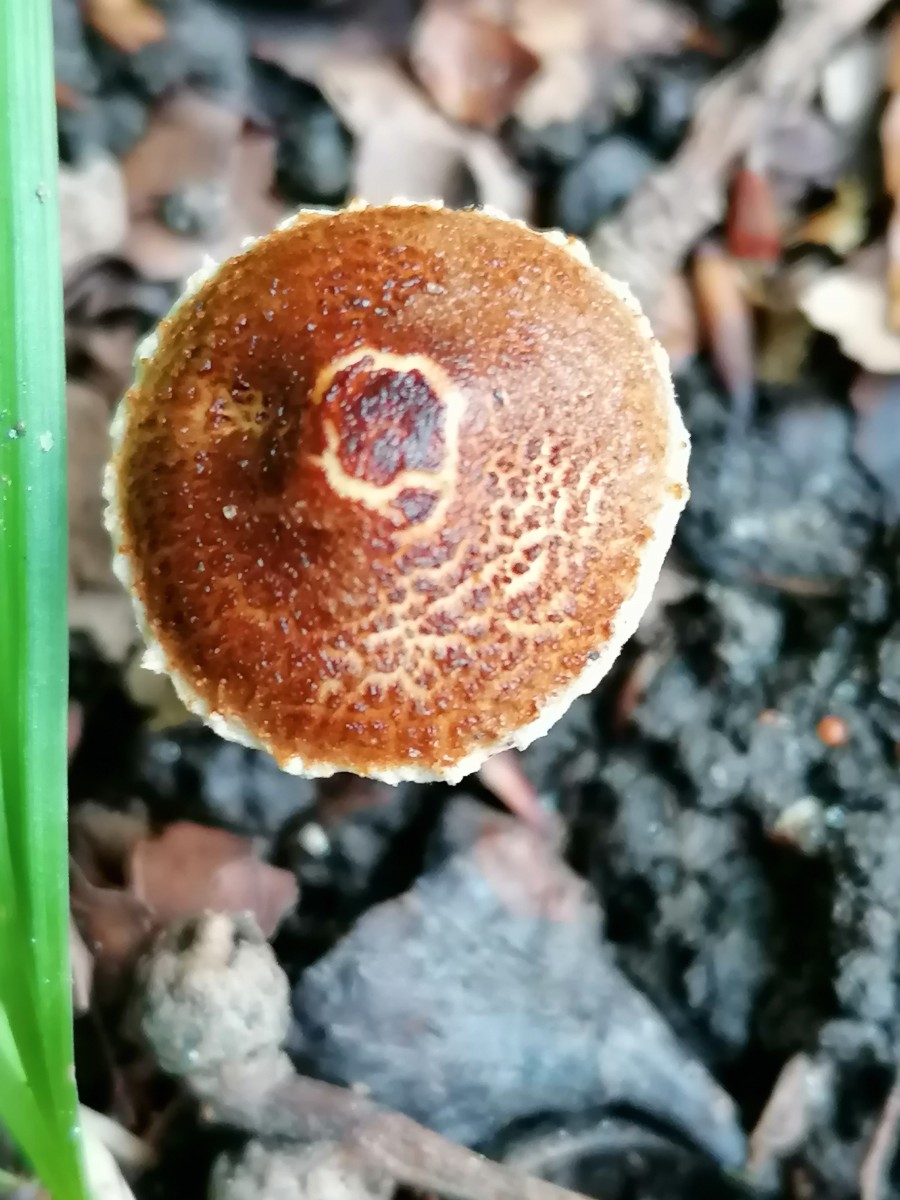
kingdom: Fungi
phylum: Basidiomycota
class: Agaricomycetes
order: Agaricales
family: Agaricaceae
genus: Lepiota
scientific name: Lepiota castanea
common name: kastaniebrun parasolhat
